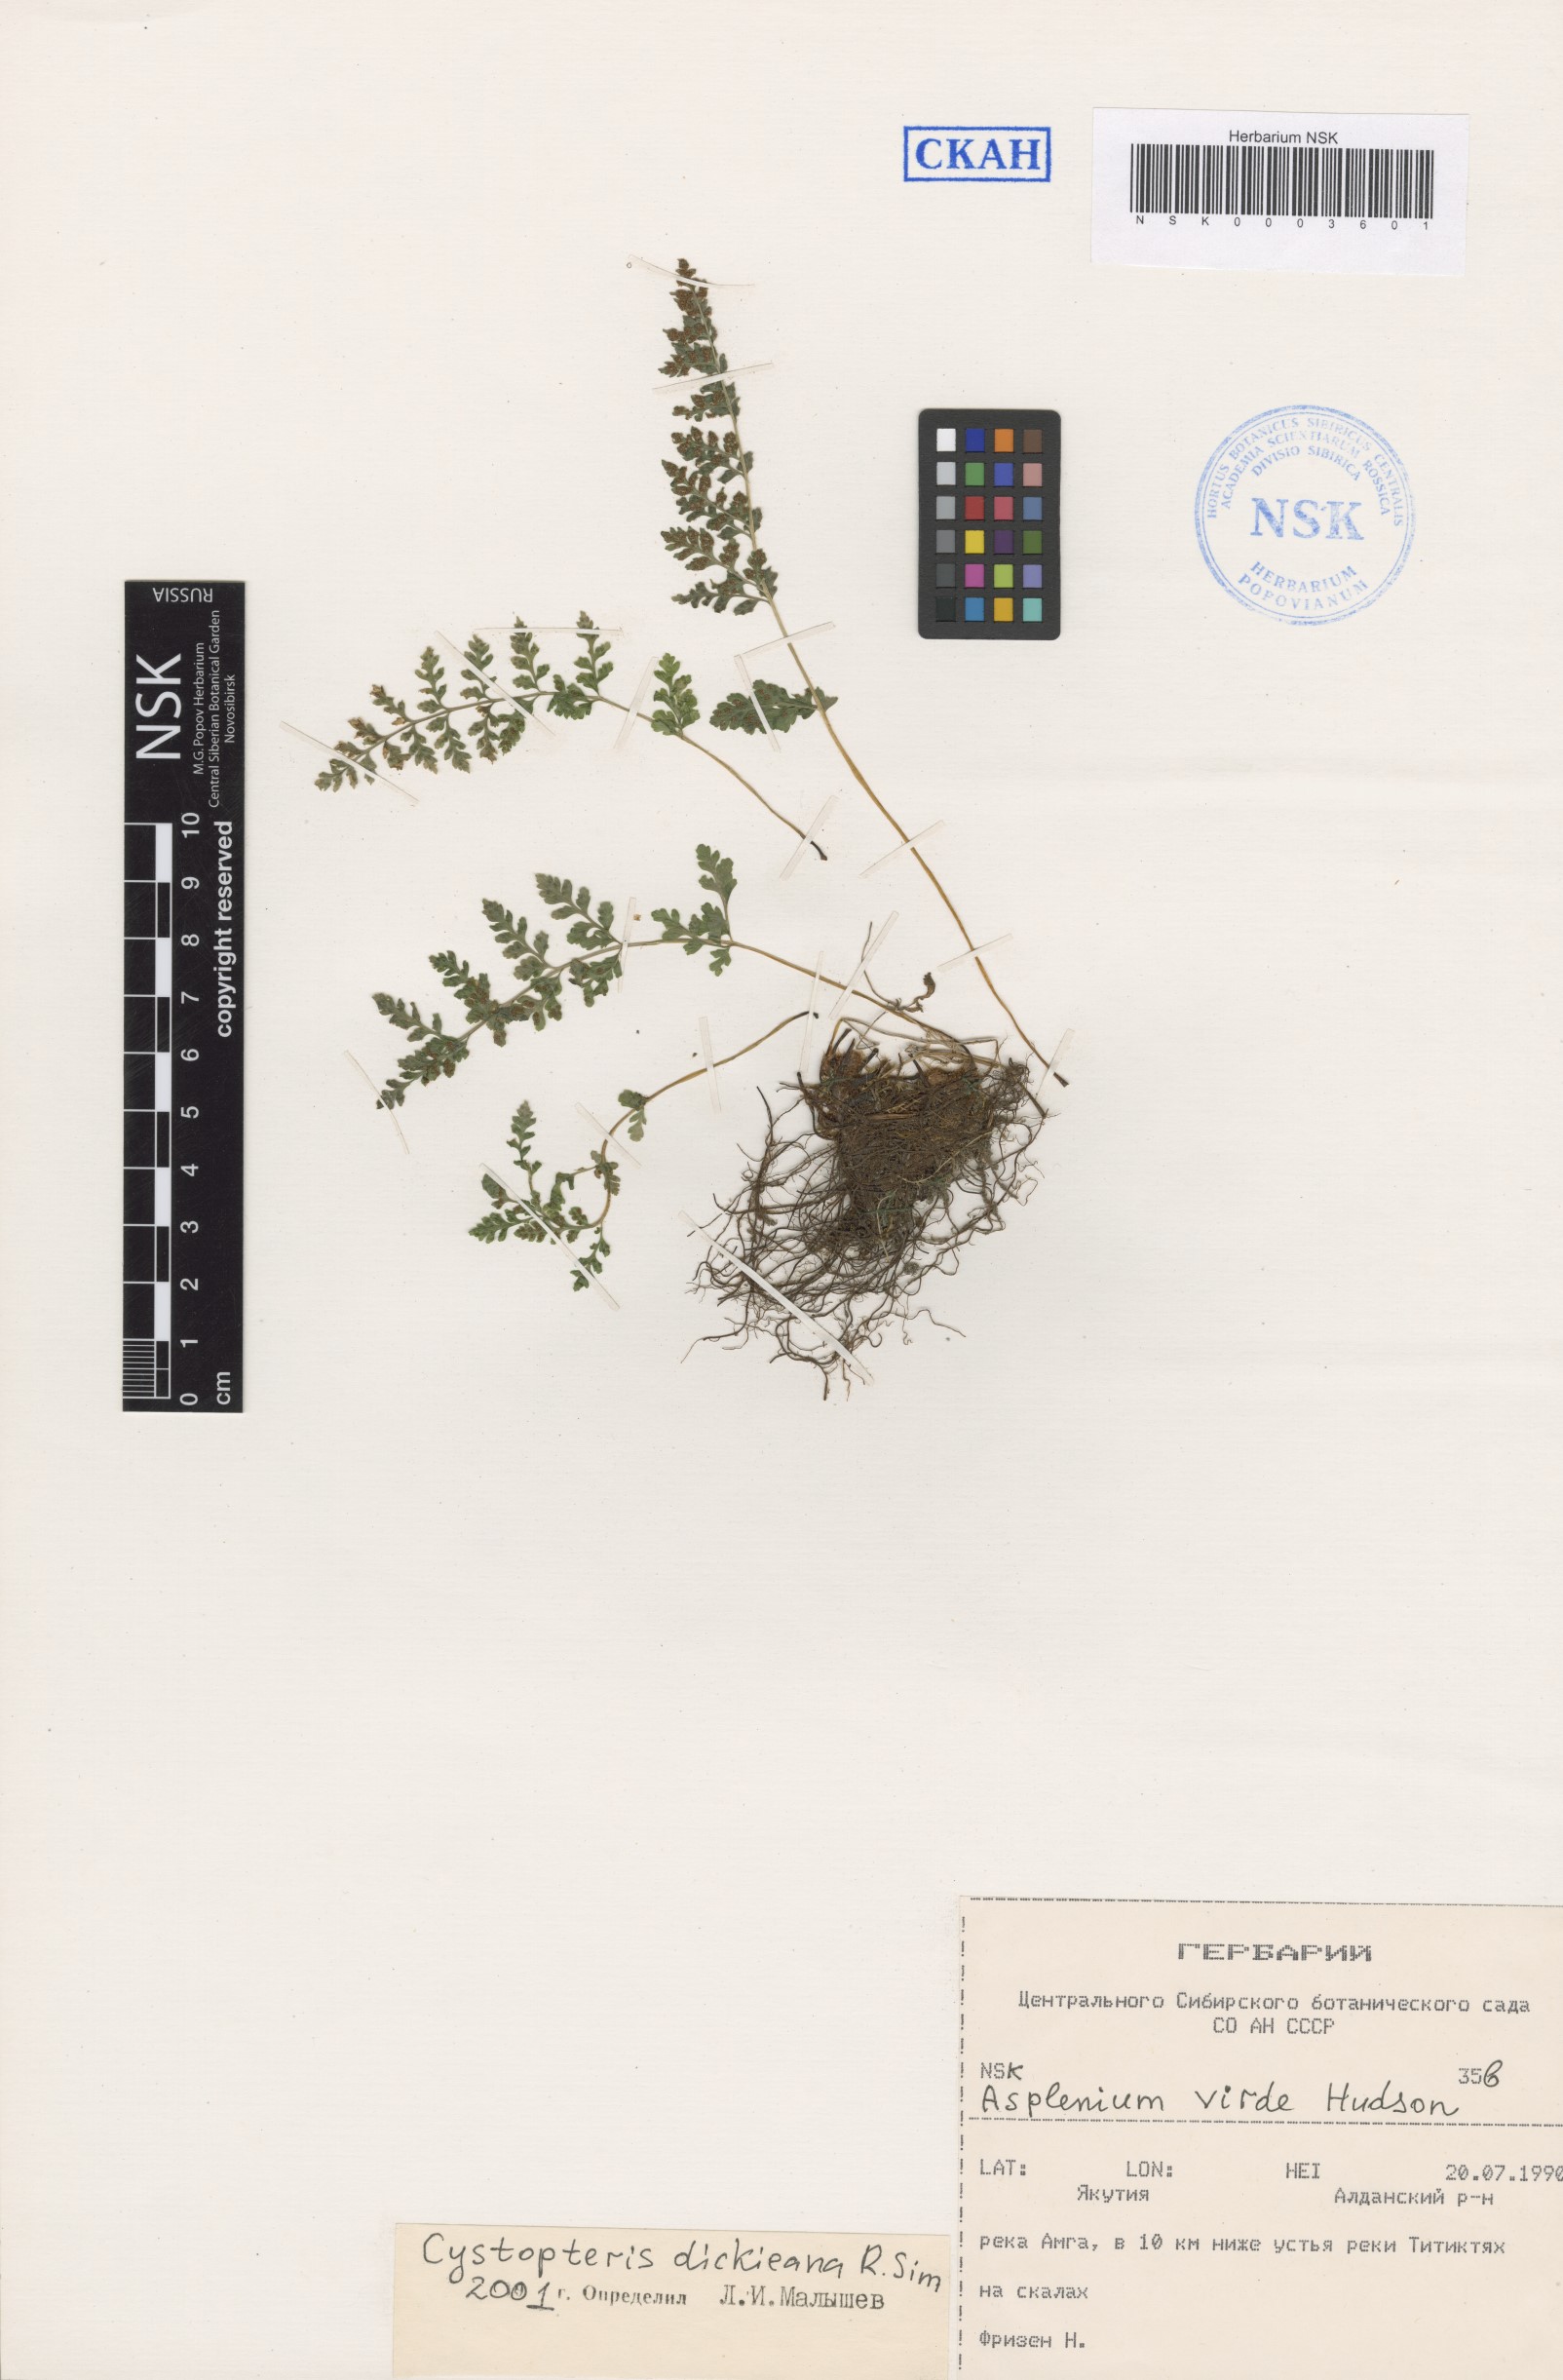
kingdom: Plantae
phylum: Tracheophyta
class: Polypodiopsida
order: Polypodiales
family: Cystopteridaceae
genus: Cystopteris
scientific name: Cystopteris dickieana
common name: Dickie's bladder-fern
